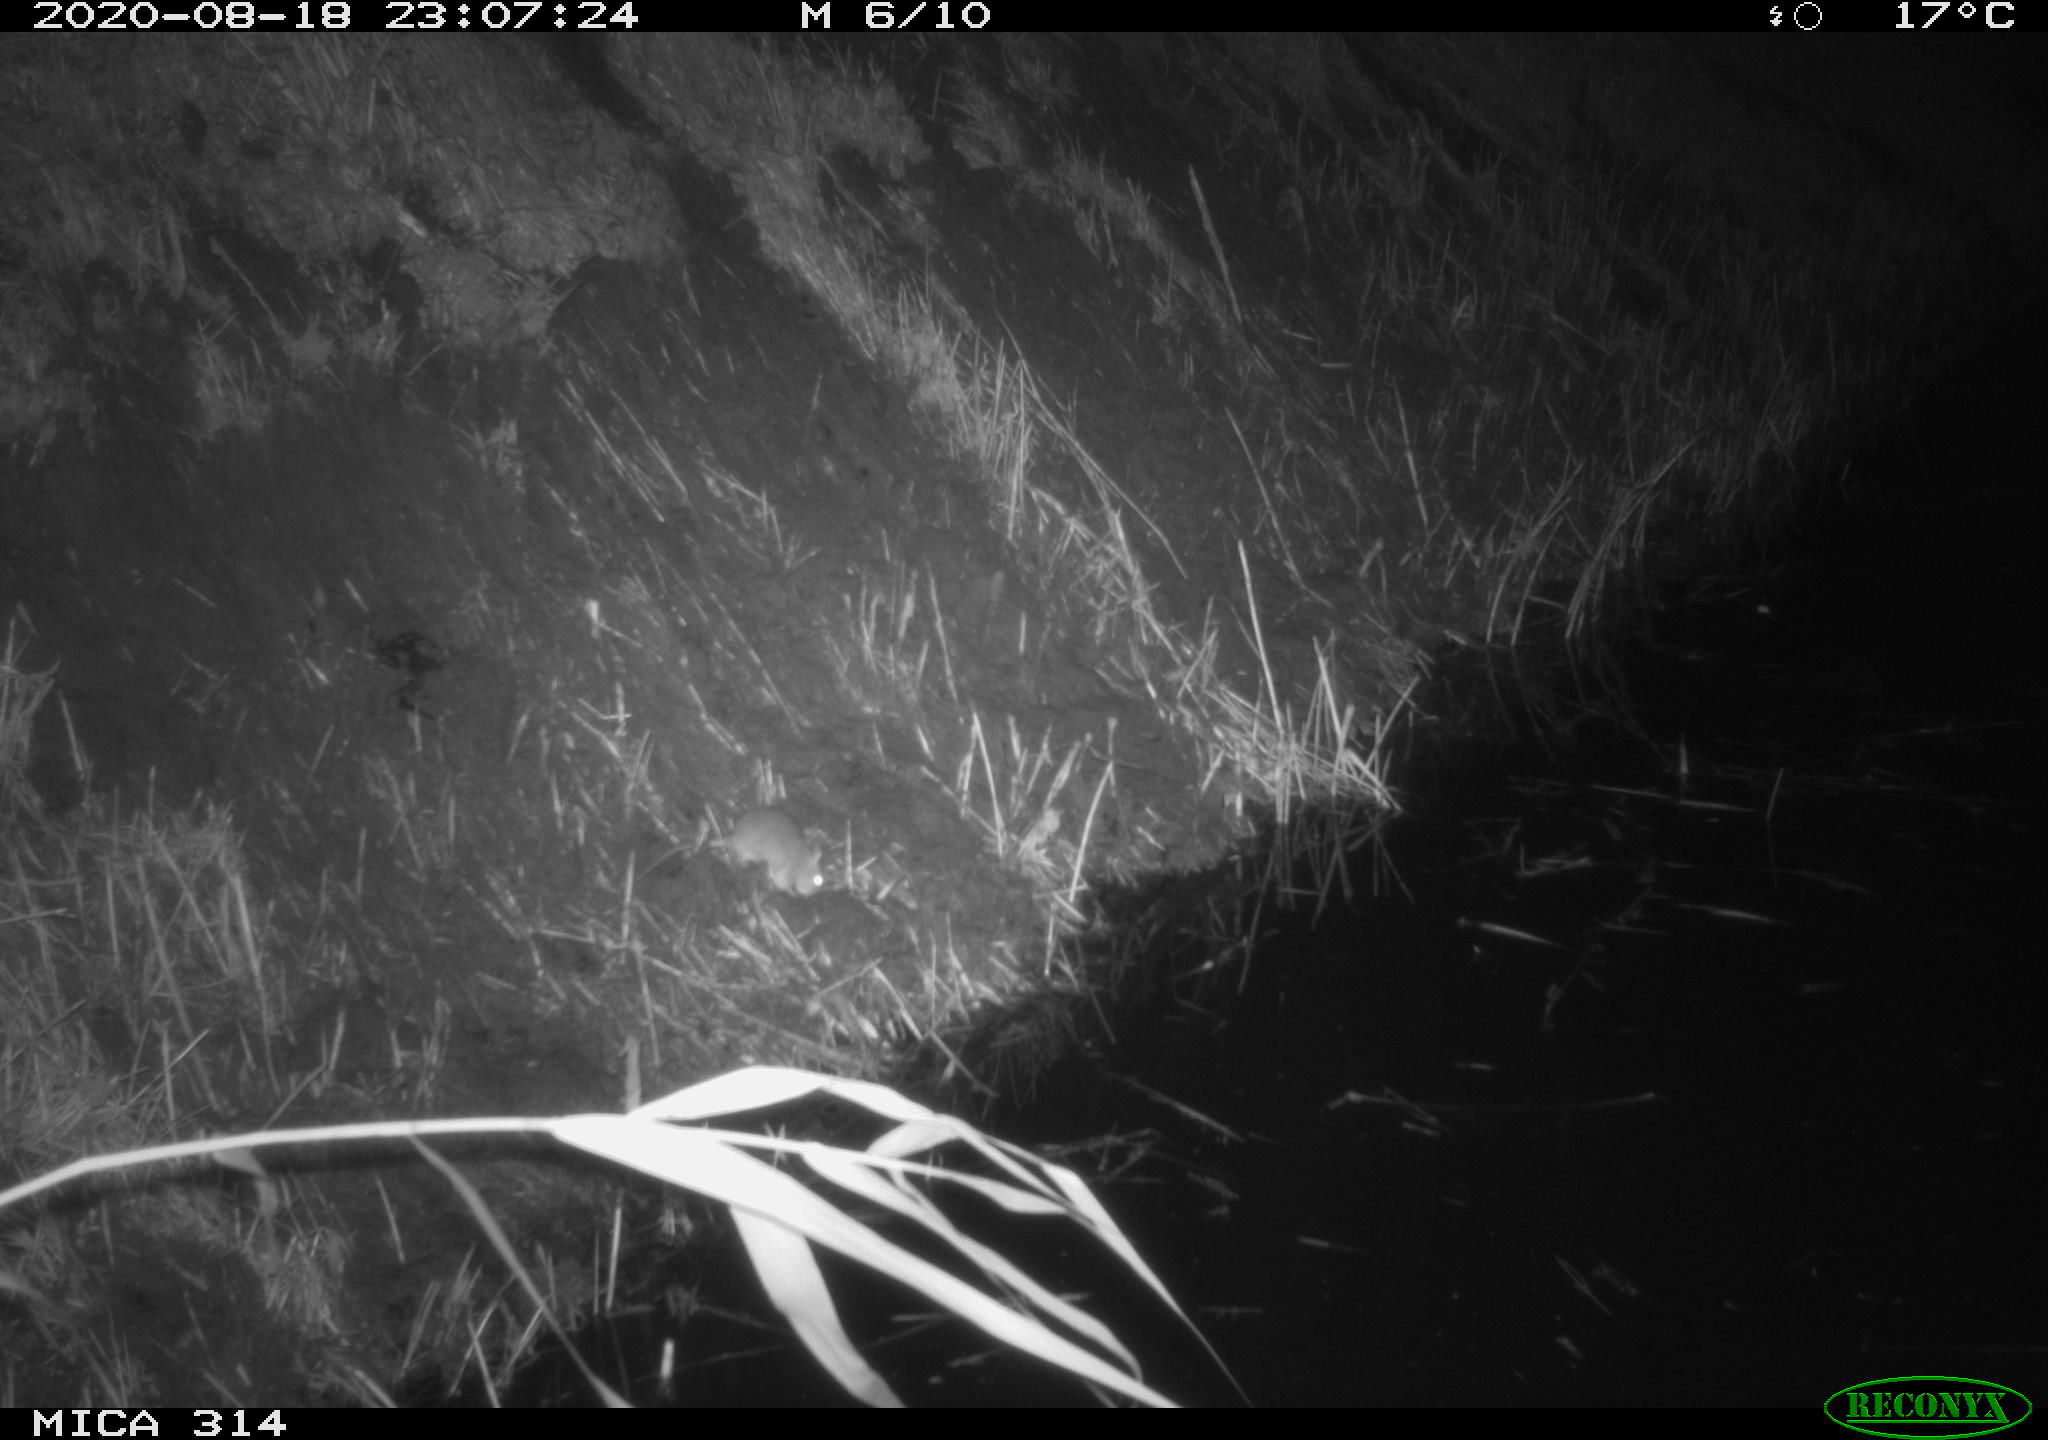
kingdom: Animalia
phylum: Chordata
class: Mammalia
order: Rodentia
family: Muridae
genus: Rattus
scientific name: Rattus norvegicus
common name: Brown rat
